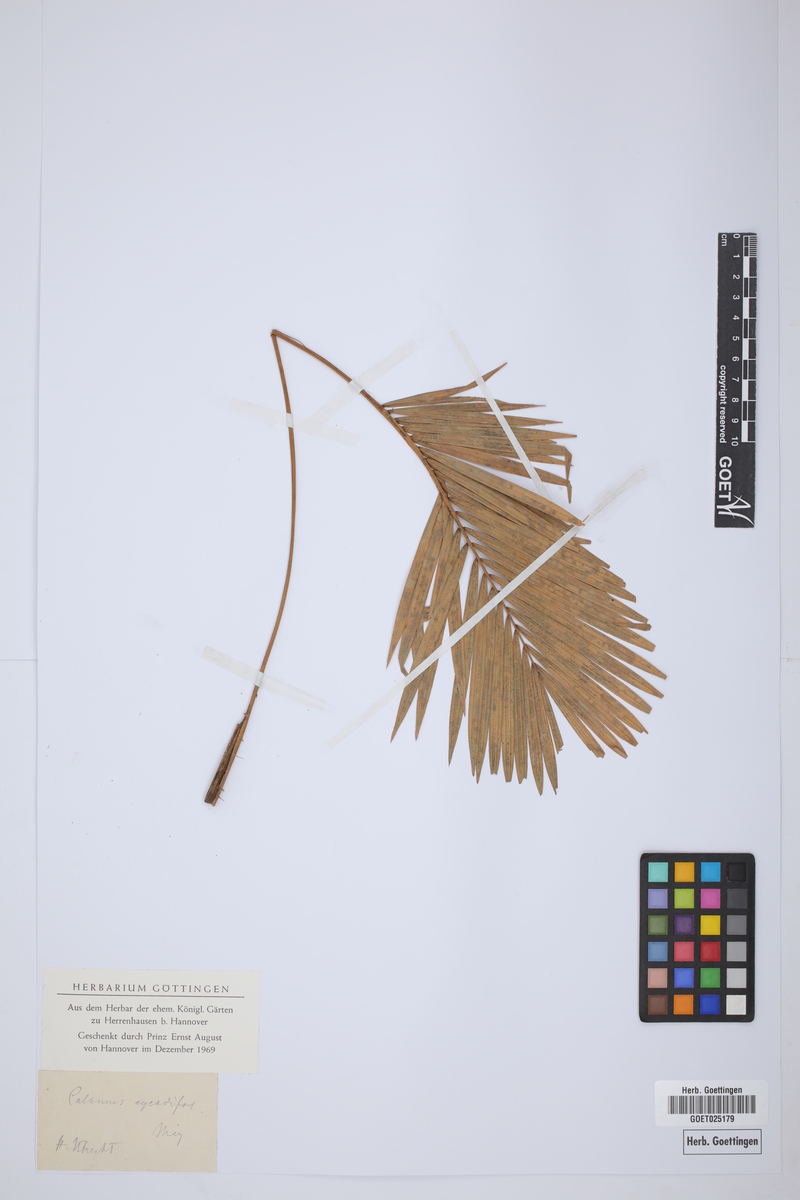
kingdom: Plantae
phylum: Tracheophyta
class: Liliopsida
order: Arecales
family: Arecaceae
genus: Calamus
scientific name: Calamus
